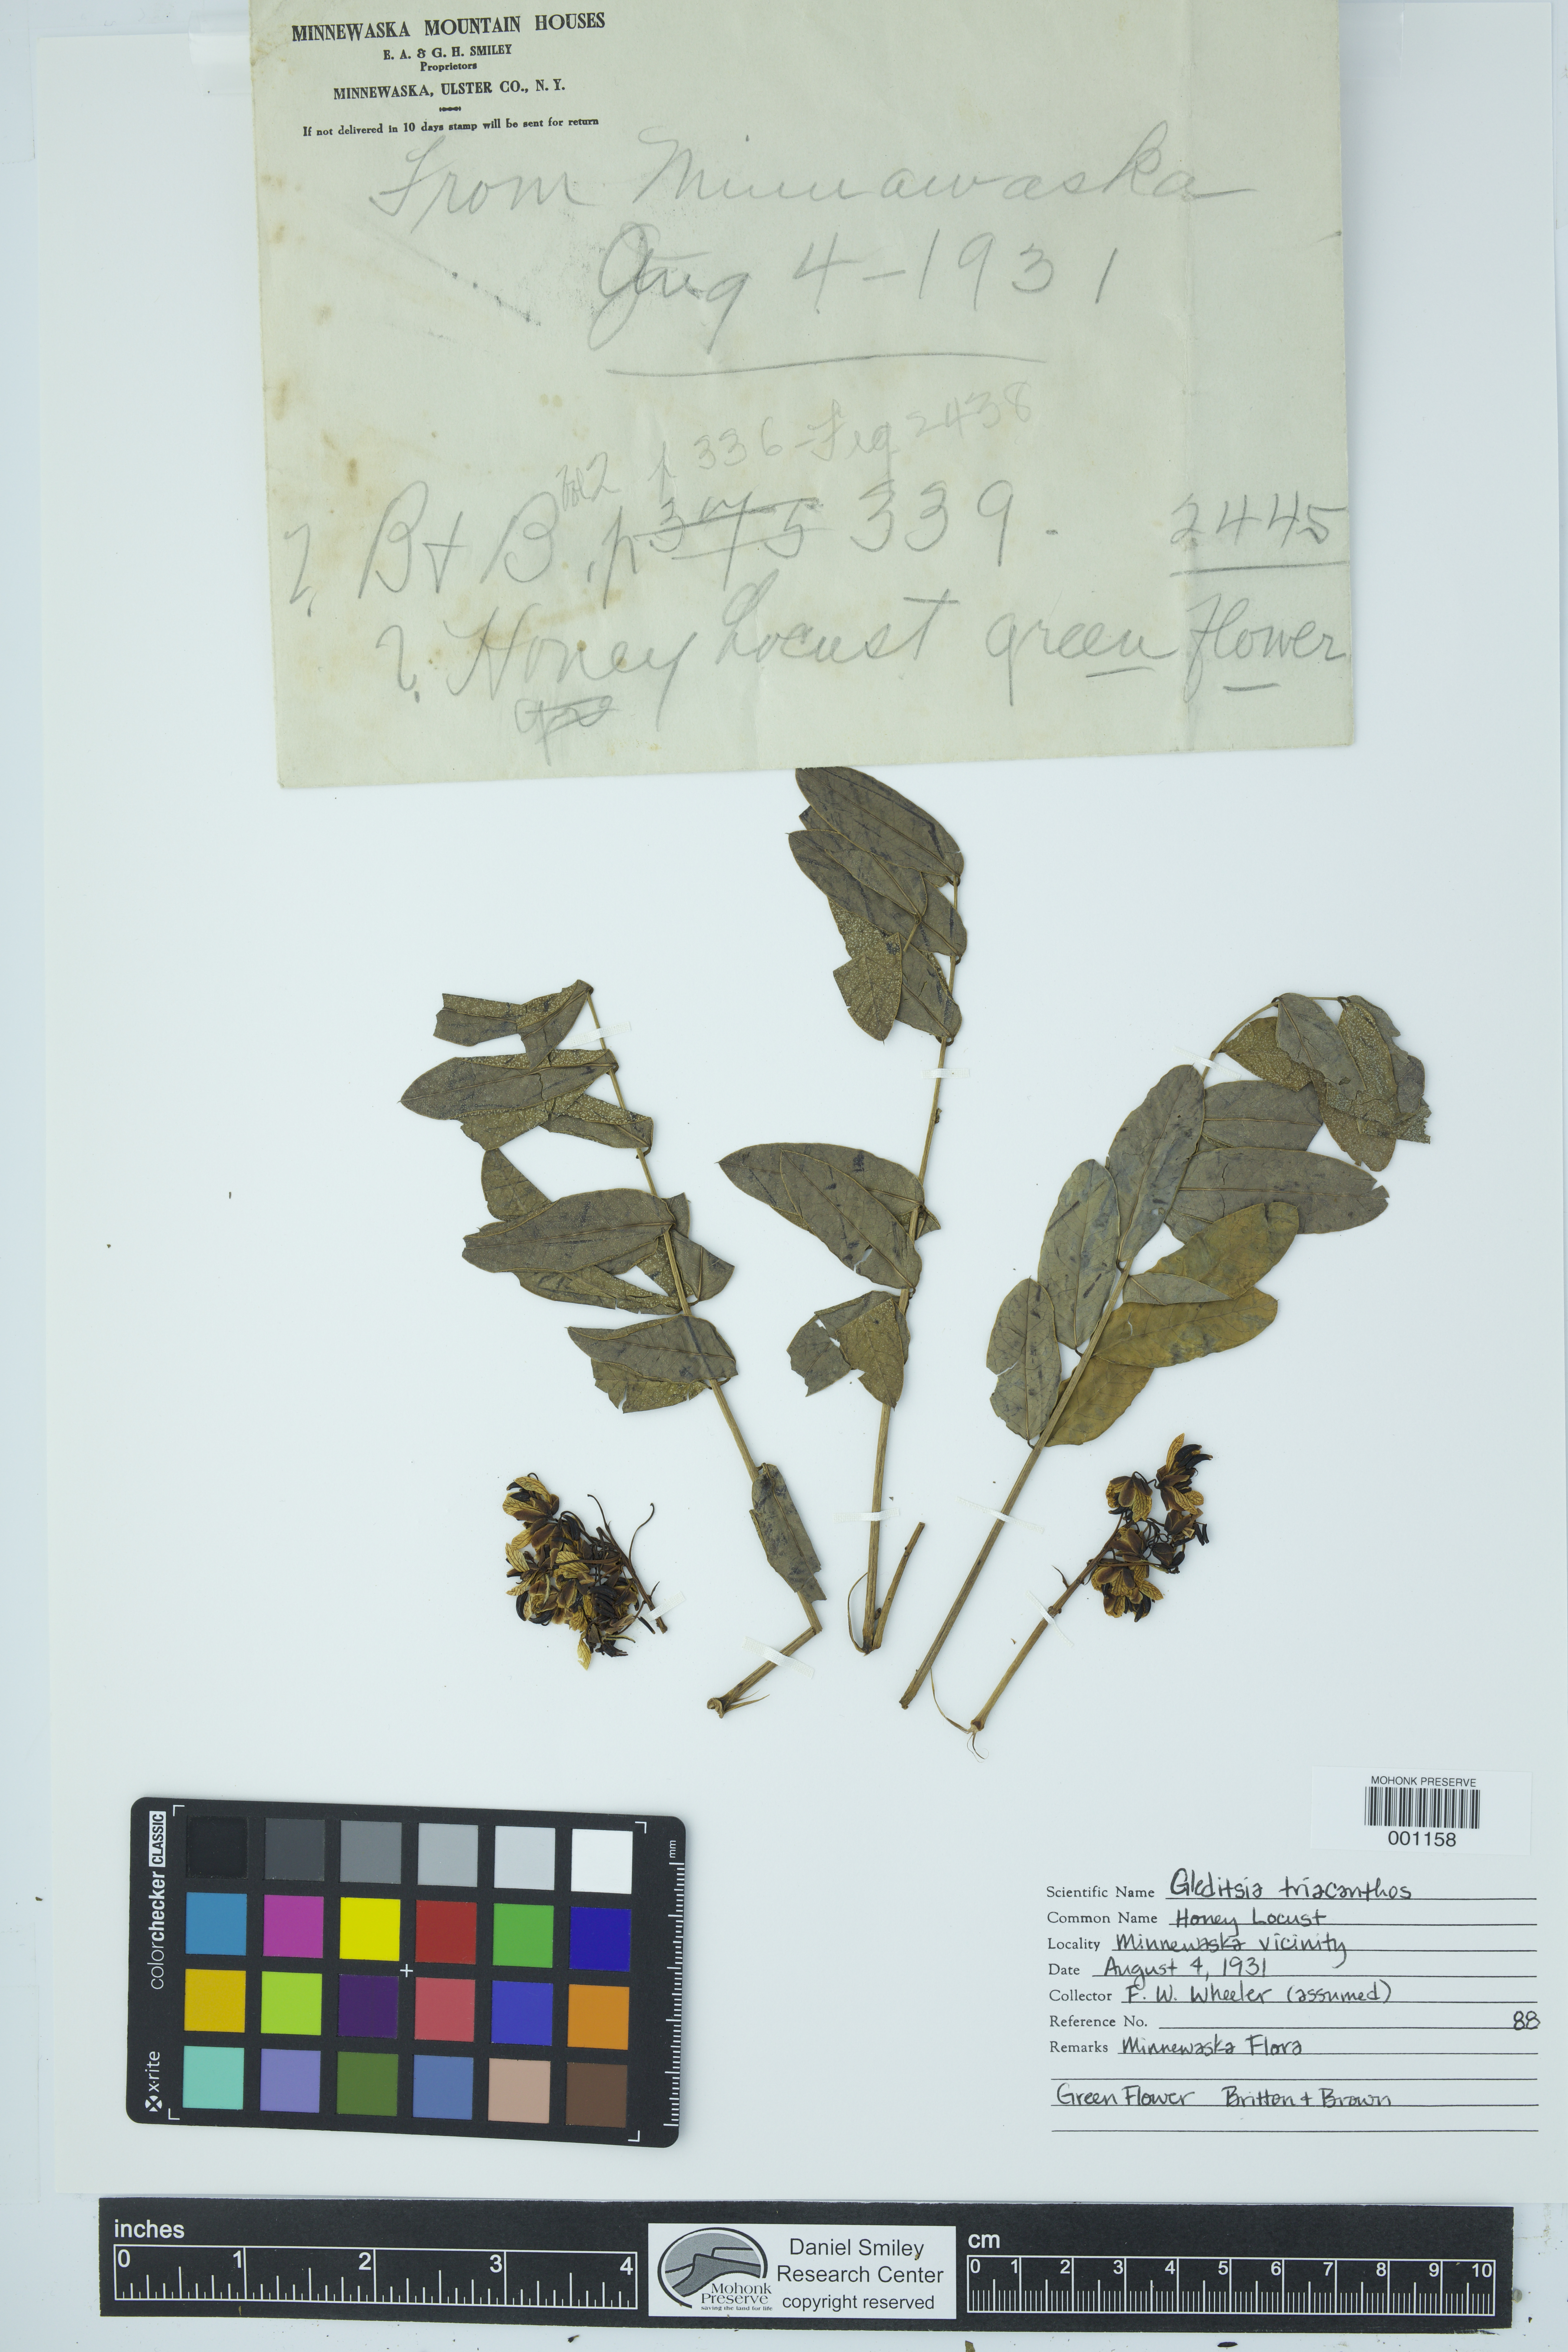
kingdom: Plantae
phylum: Tracheophyta
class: Magnoliopsida
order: Fabales
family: Fabaceae
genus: Gleditsia
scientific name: Gleditsia triacanthos
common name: Common honeylocust
